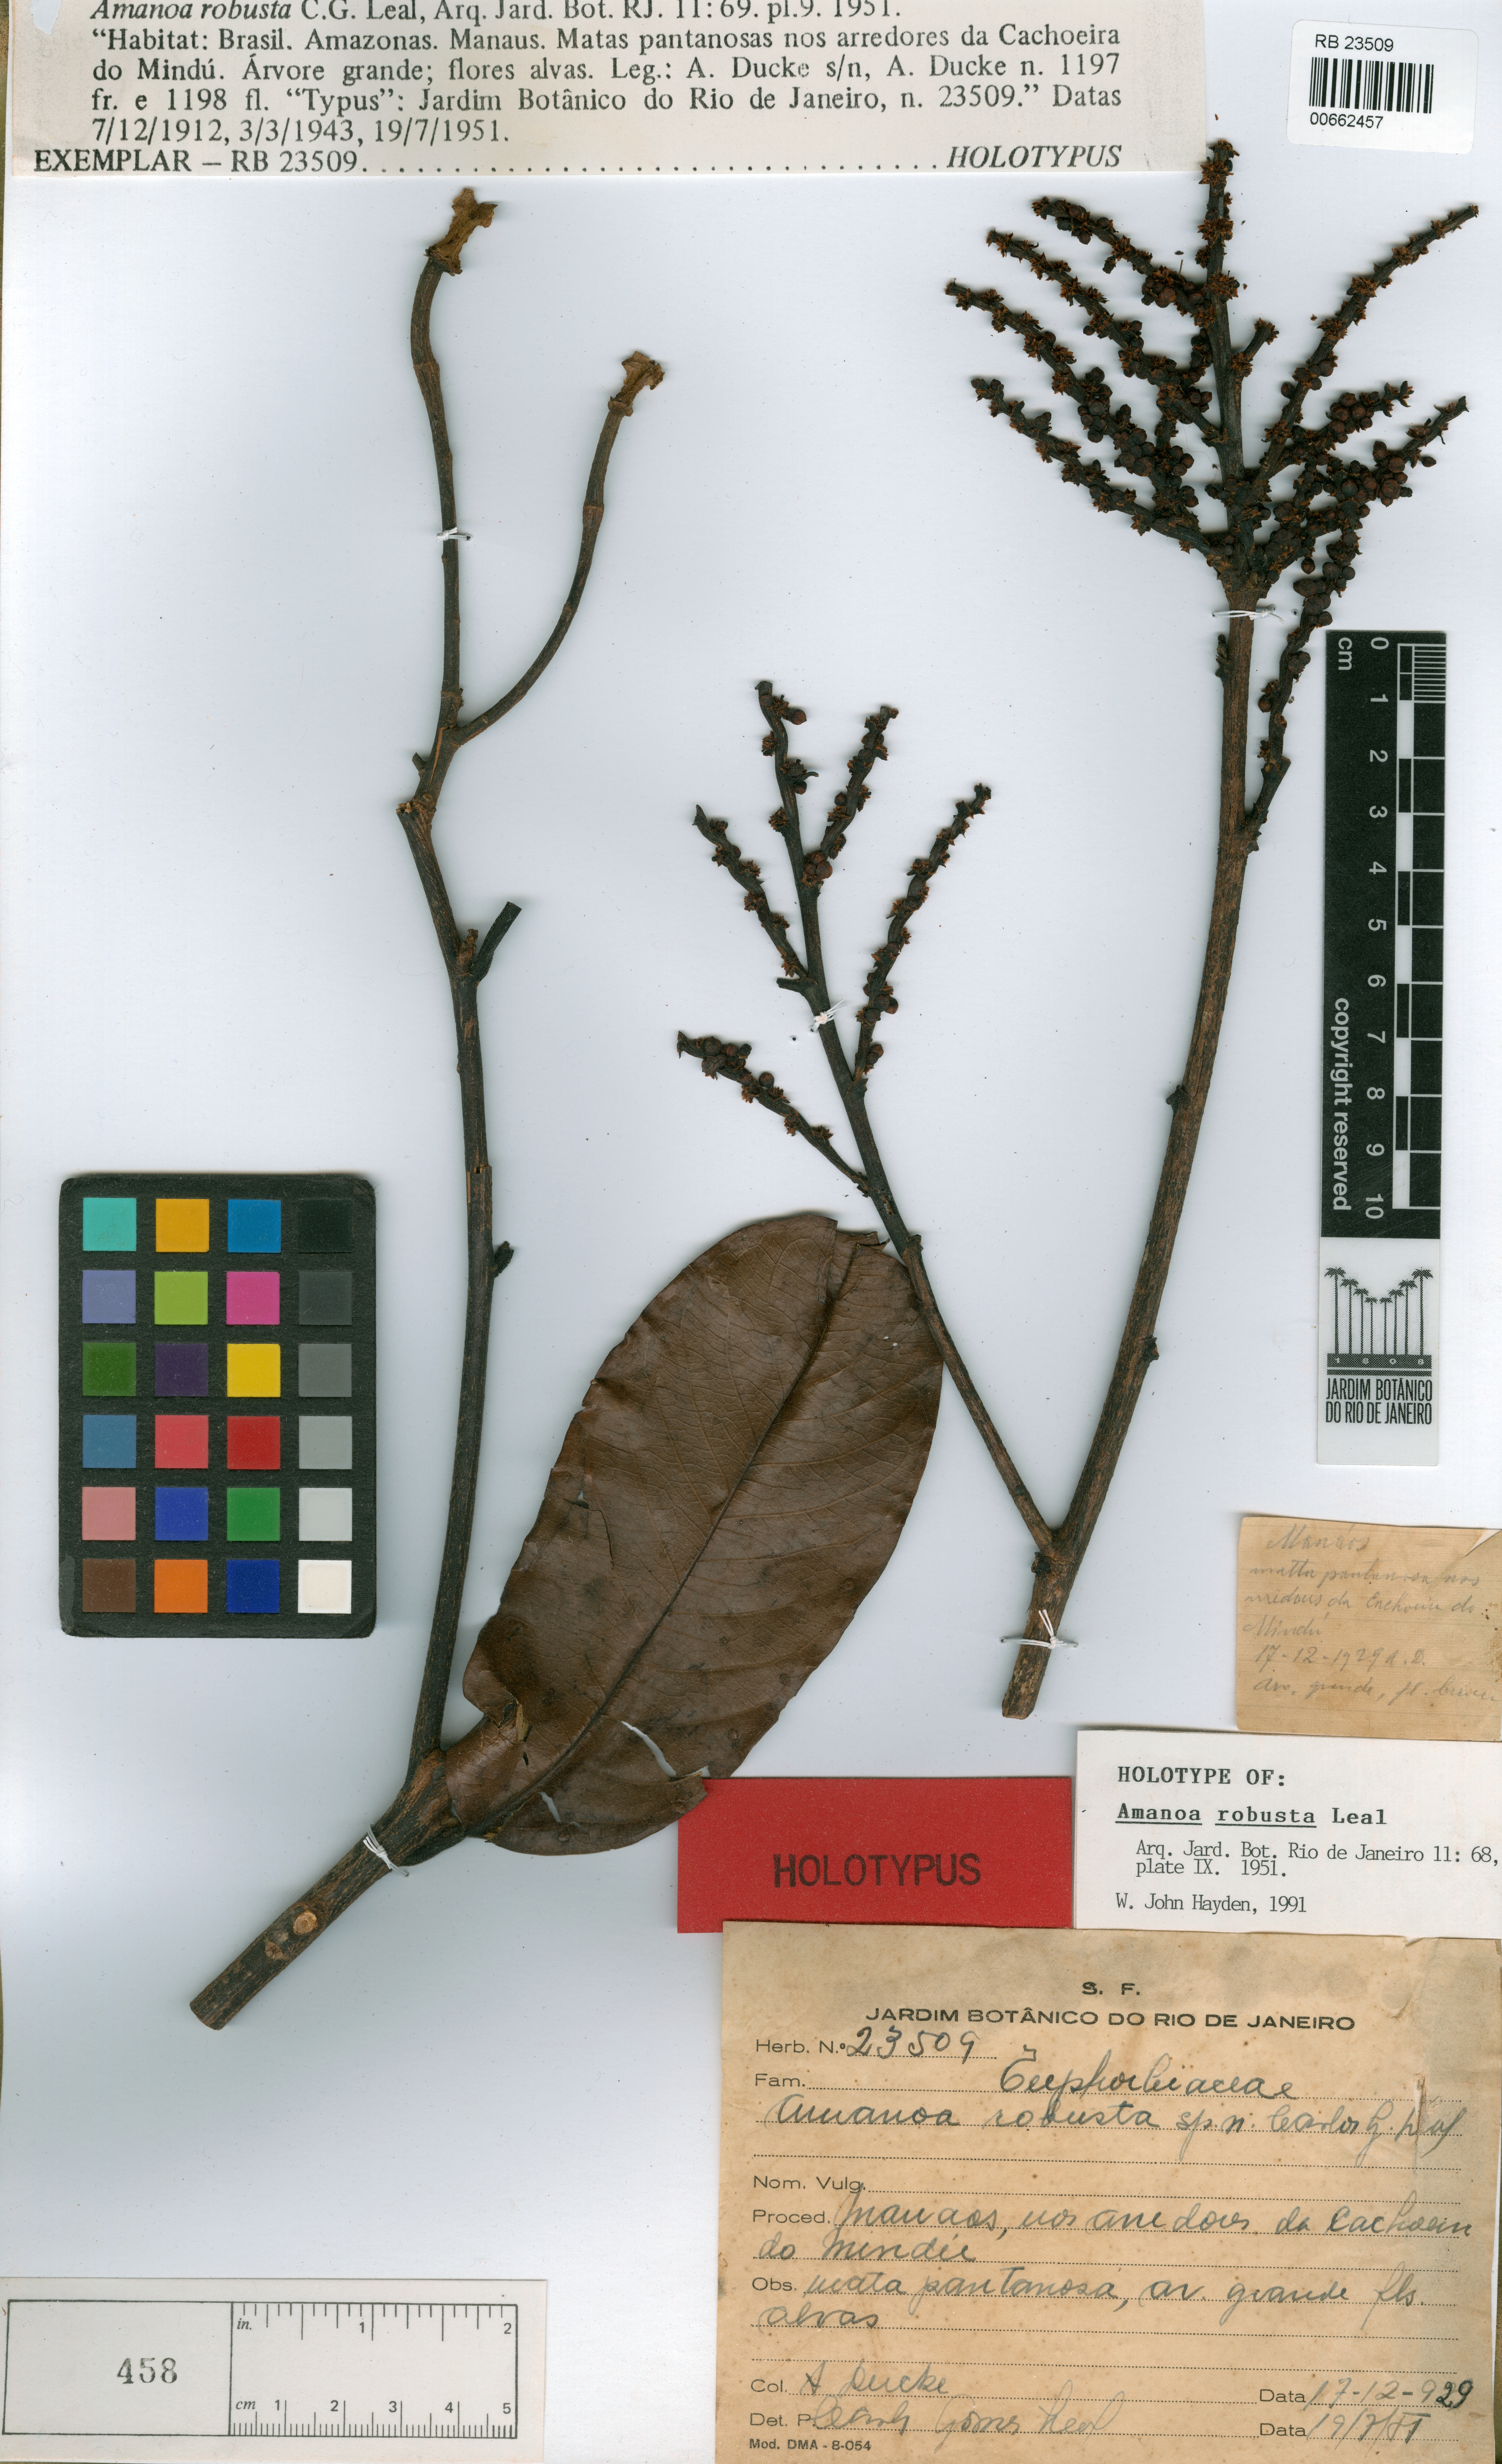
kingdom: Plantae
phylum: Tracheophyta
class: Magnoliopsida
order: Malpighiales
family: Phyllanthaceae
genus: Amanoa
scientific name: Amanoa sinuosa
